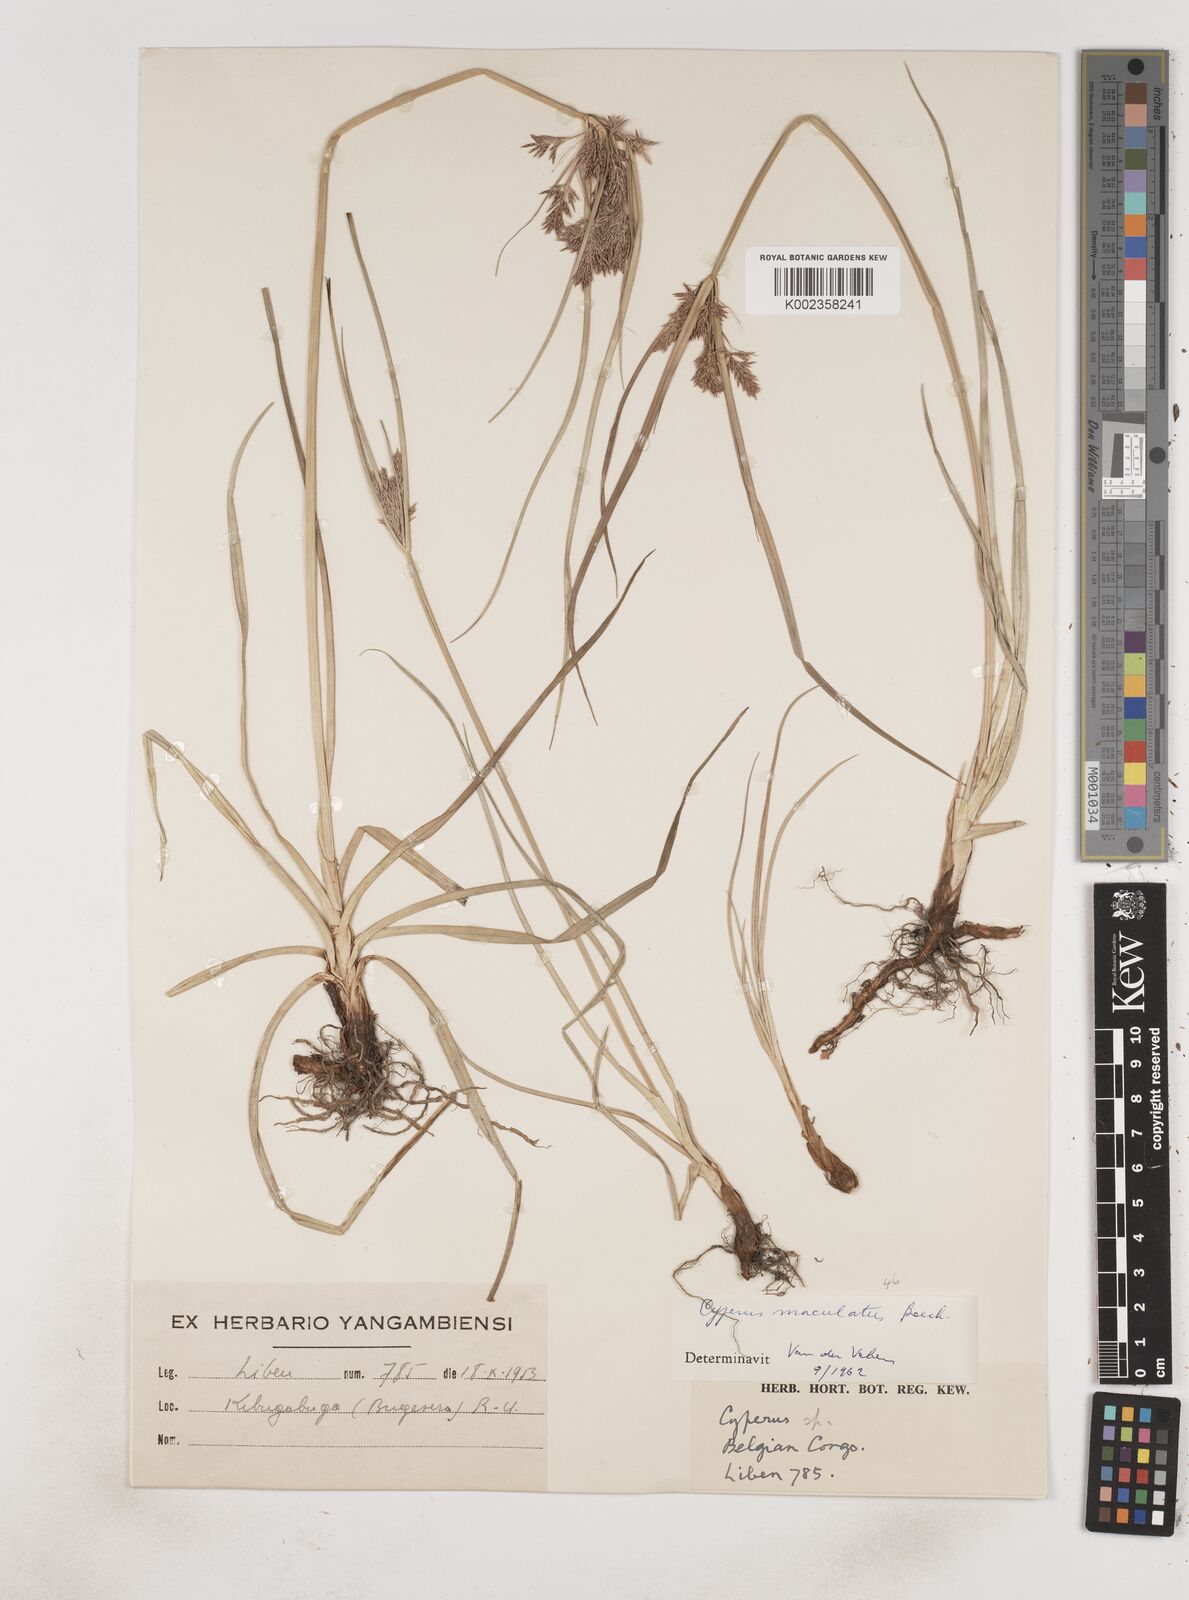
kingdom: Plantae
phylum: Tracheophyta
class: Liliopsida
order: Poales
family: Cyperaceae
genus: Cyperus
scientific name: Cyperus maculatus
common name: Maculated sedge
